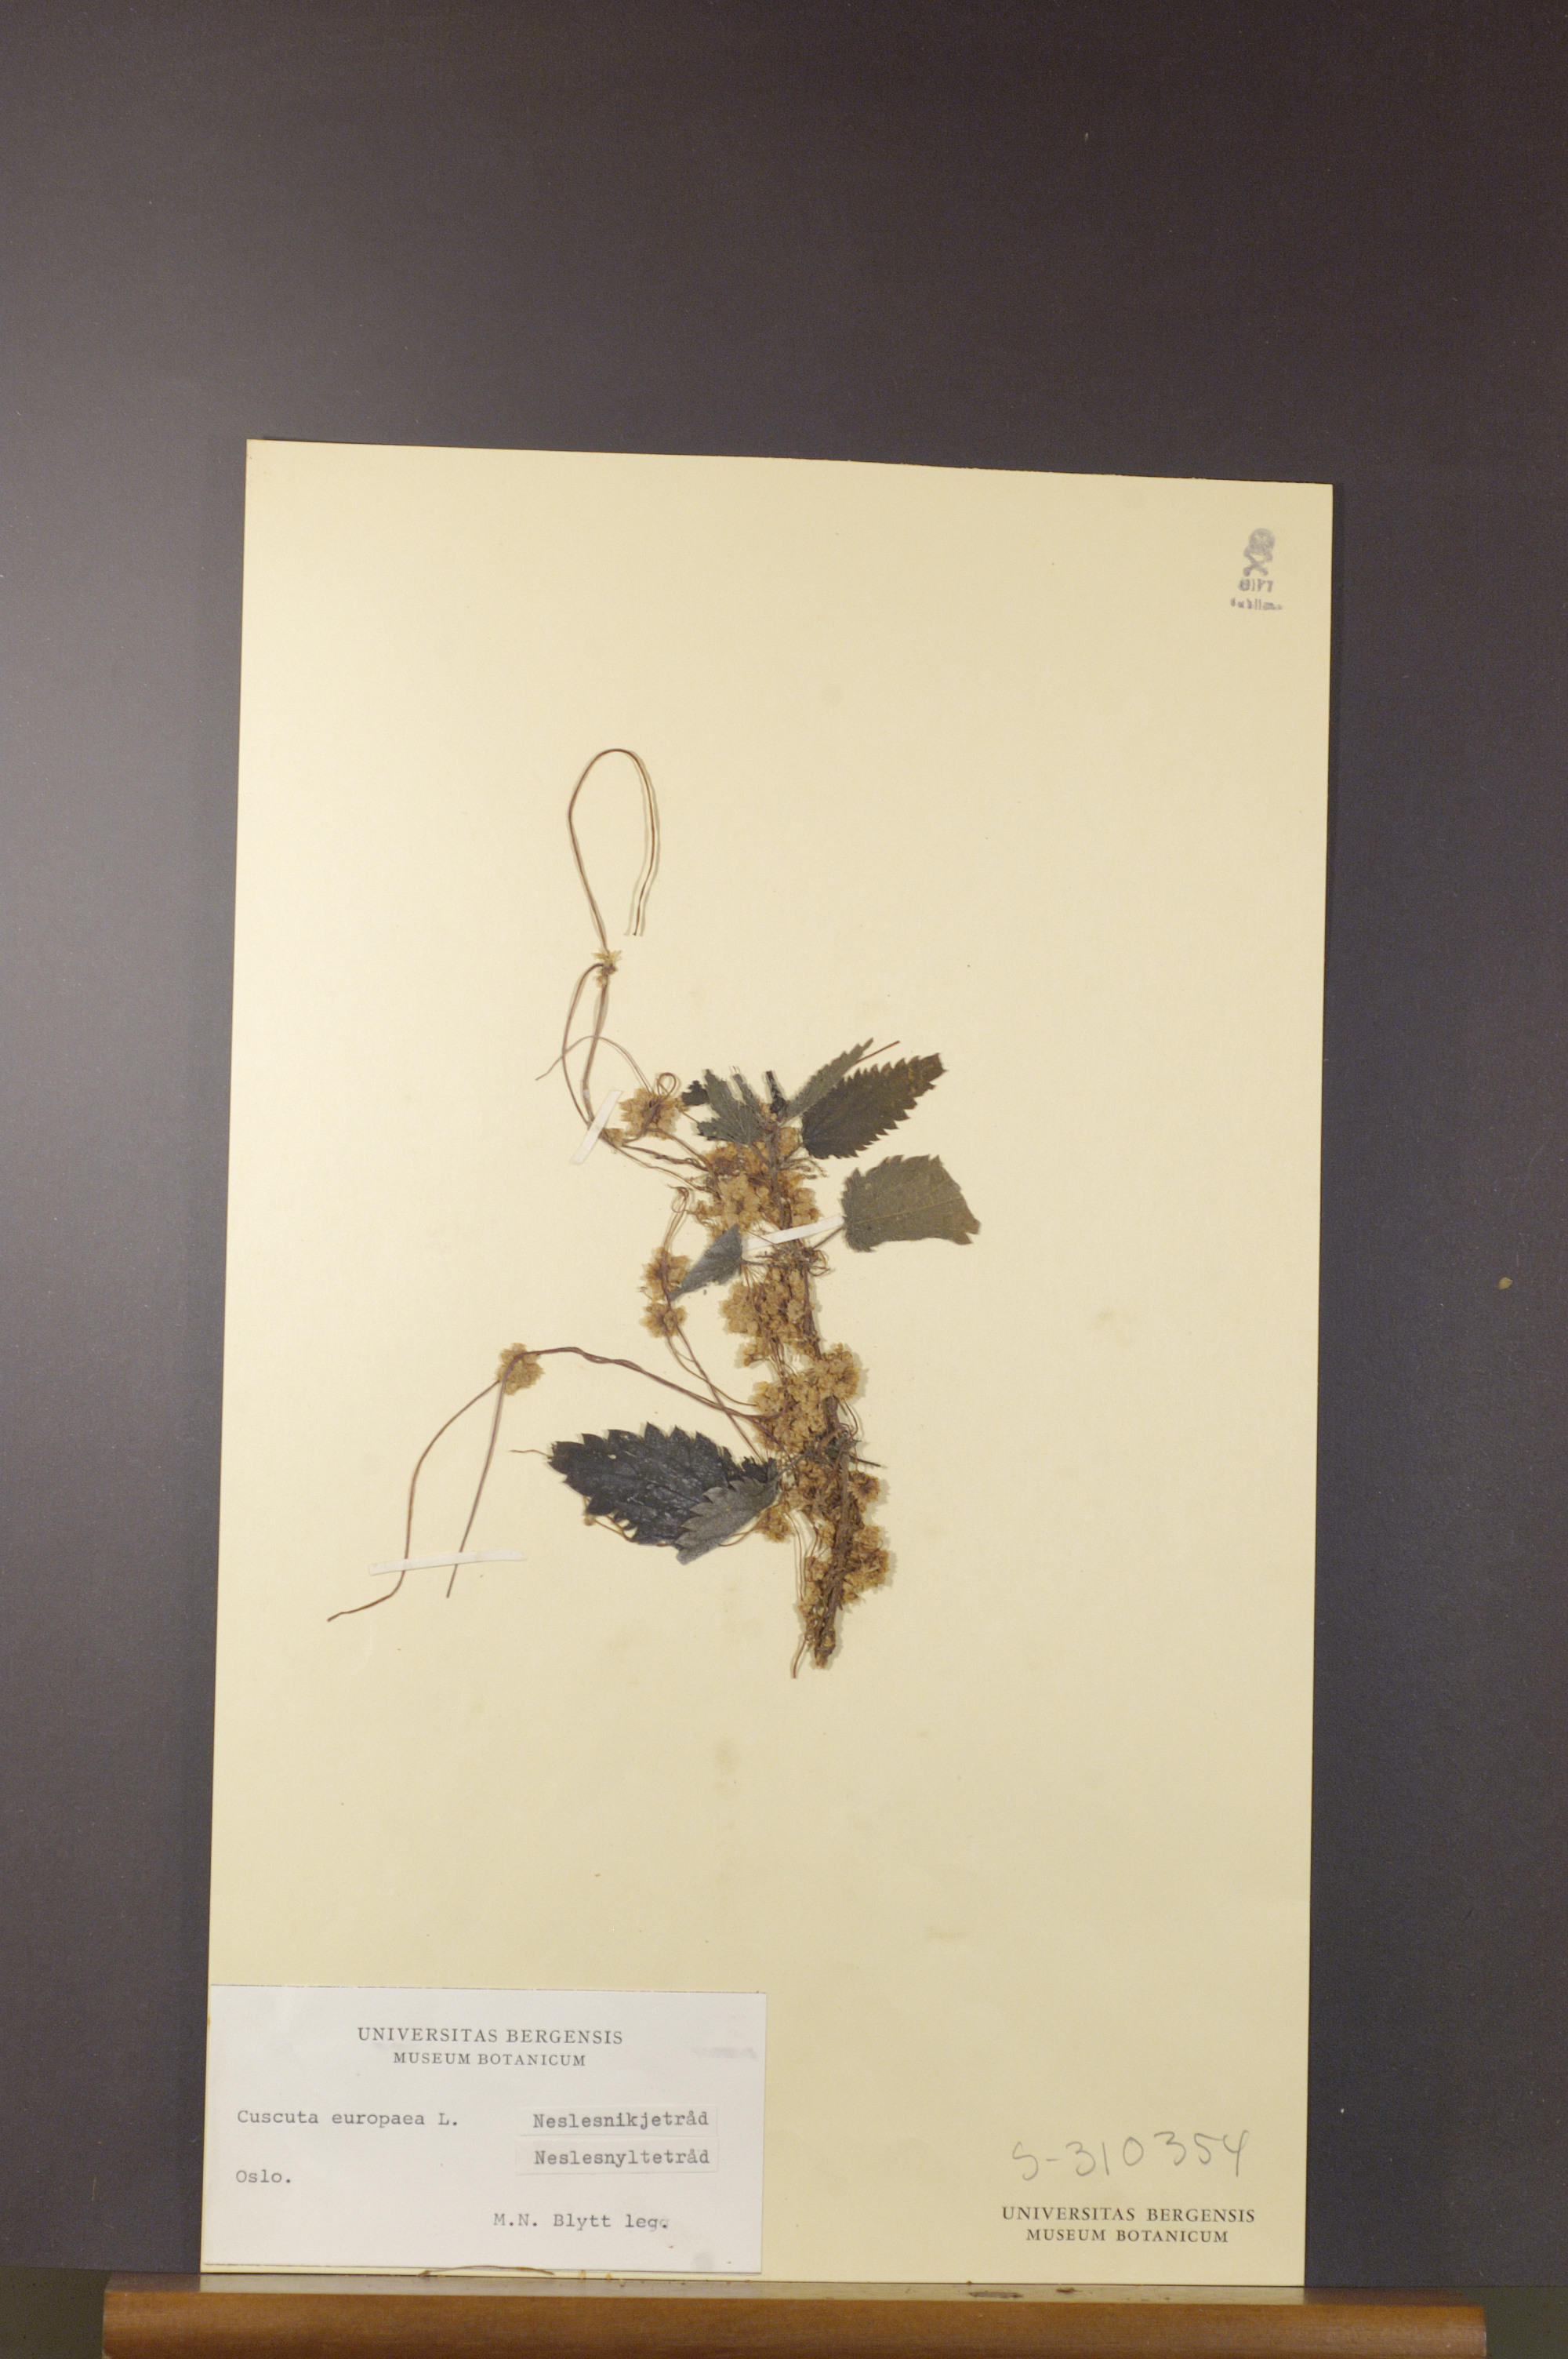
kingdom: Plantae
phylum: Tracheophyta
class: Magnoliopsida
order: Solanales
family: Convolvulaceae
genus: Cuscuta
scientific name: Cuscuta europaea
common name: Greater dodder
